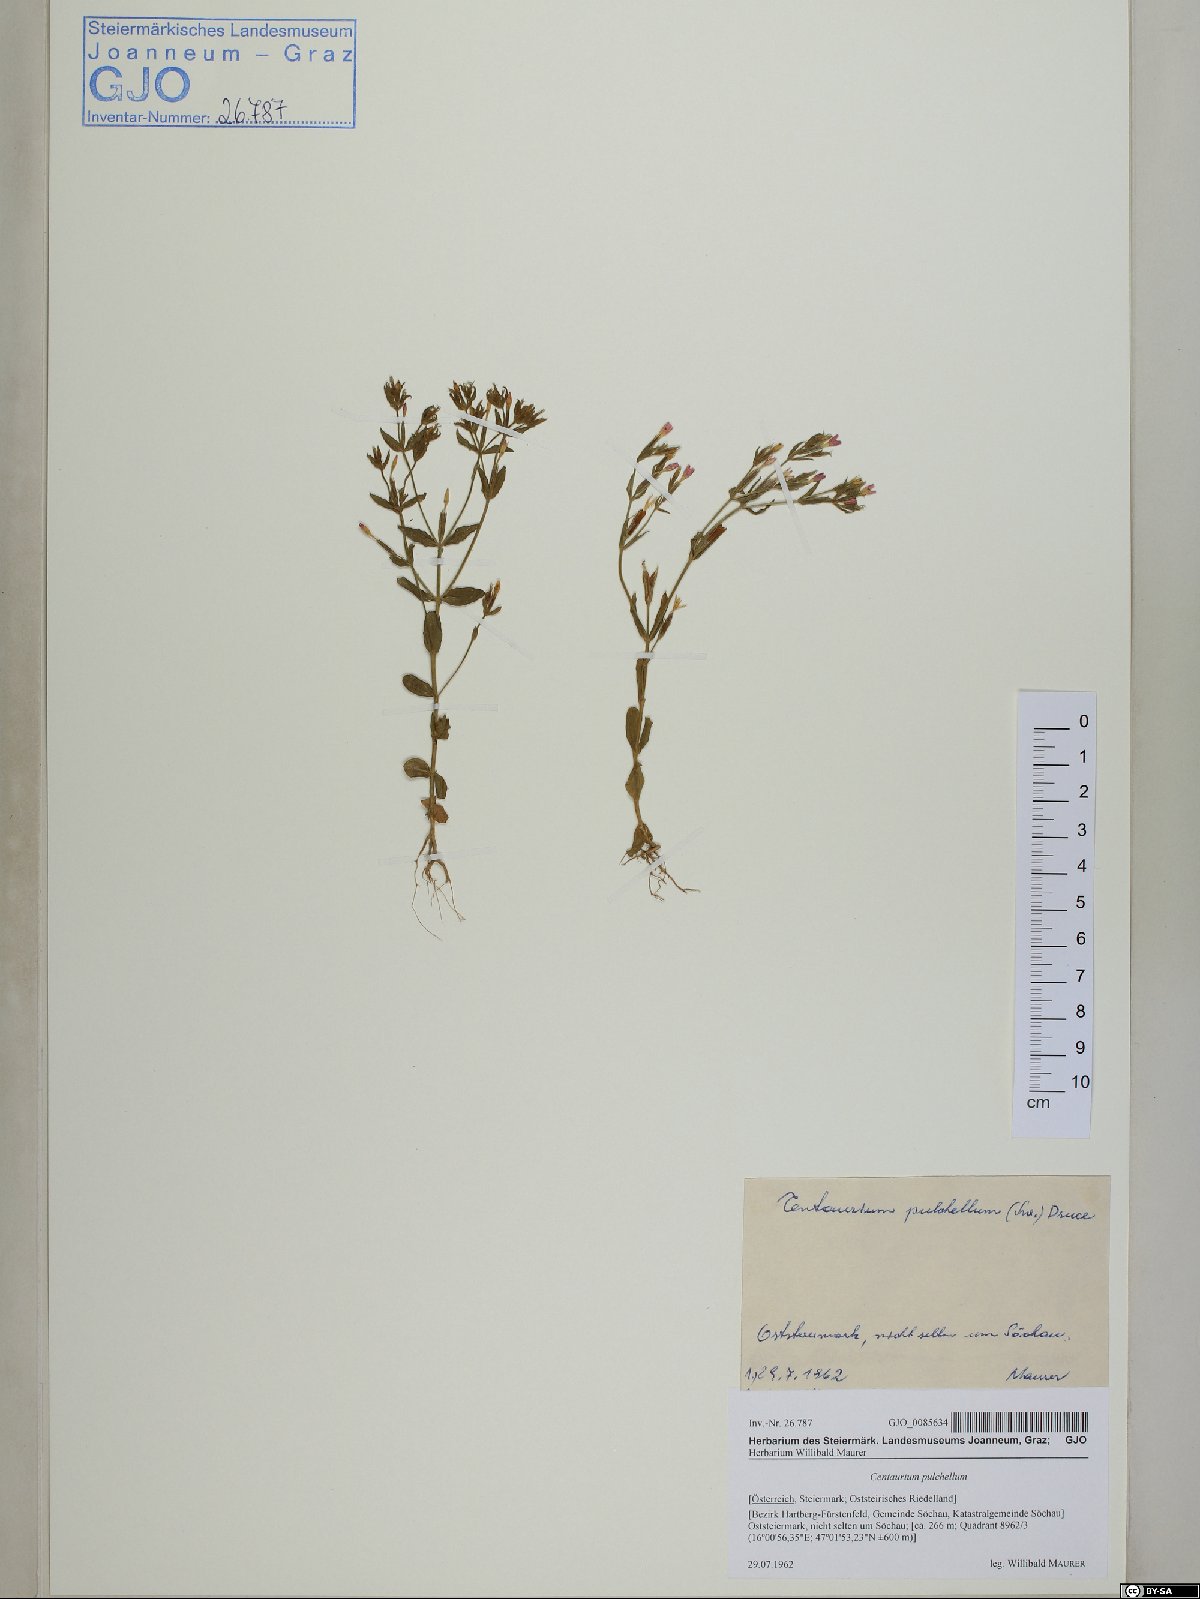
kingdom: Plantae
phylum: Tracheophyta
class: Magnoliopsida
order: Gentianales
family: Gentianaceae
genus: Centaurium
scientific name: Centaurium pulchellum
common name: Lesser centaury
